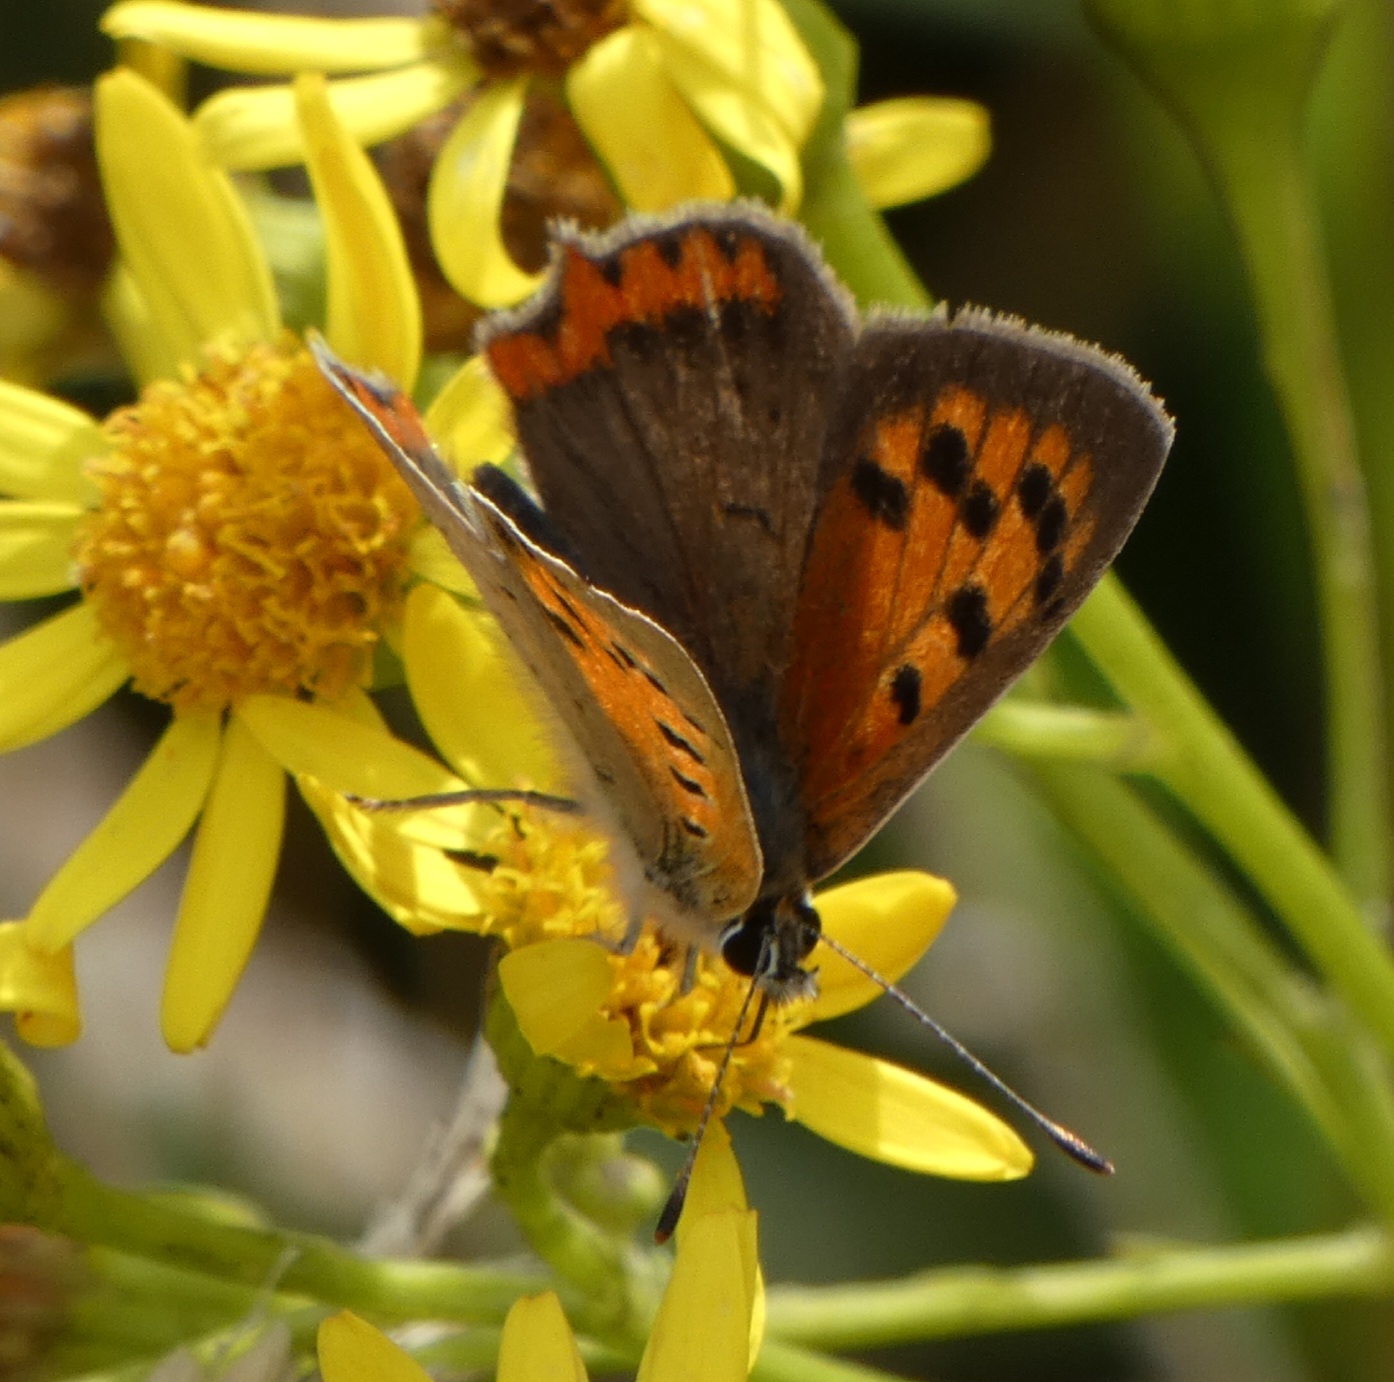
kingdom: Animalia
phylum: Arthropoda
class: Insecta
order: Lepidoptera
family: Lycaenidae
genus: Lycaena
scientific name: Lycaena phlaeas
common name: Lille ildfugl
